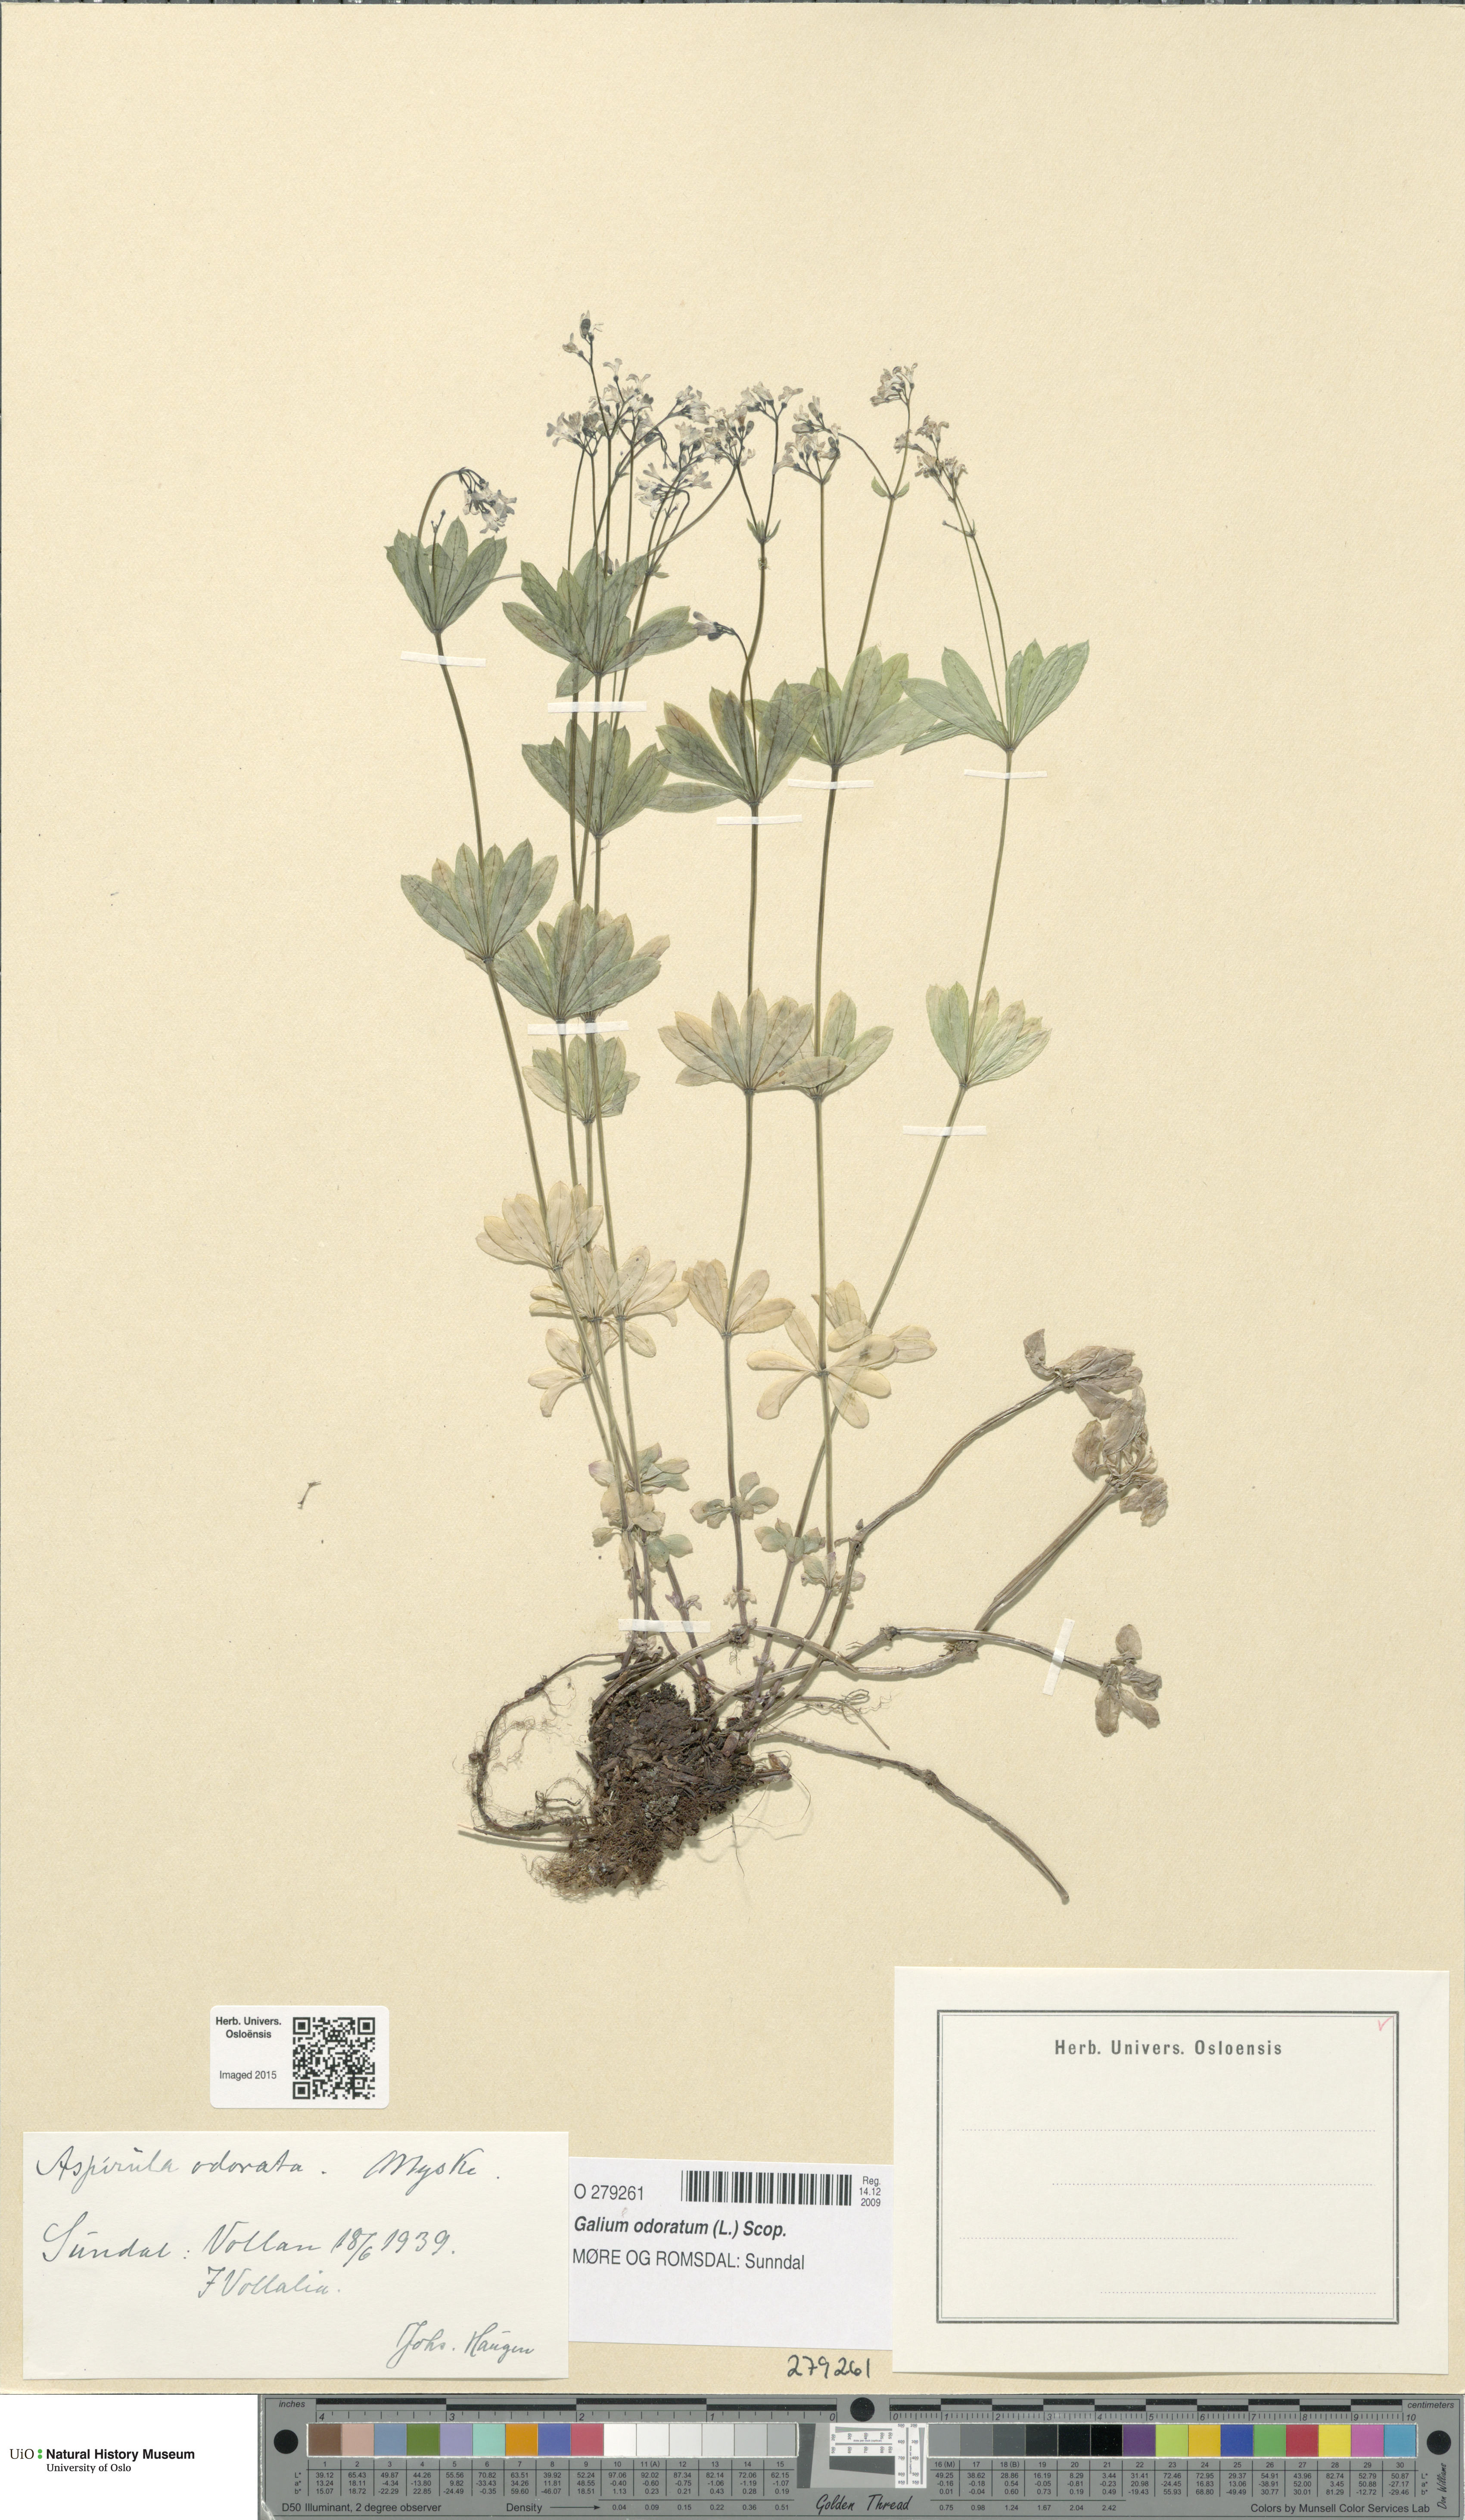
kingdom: Plantae
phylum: Tracheophyta
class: Magnoliopsida
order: Gentianales
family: Rubiaceae
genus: Galium
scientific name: Galium odoratum
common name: Sweet woodruff
